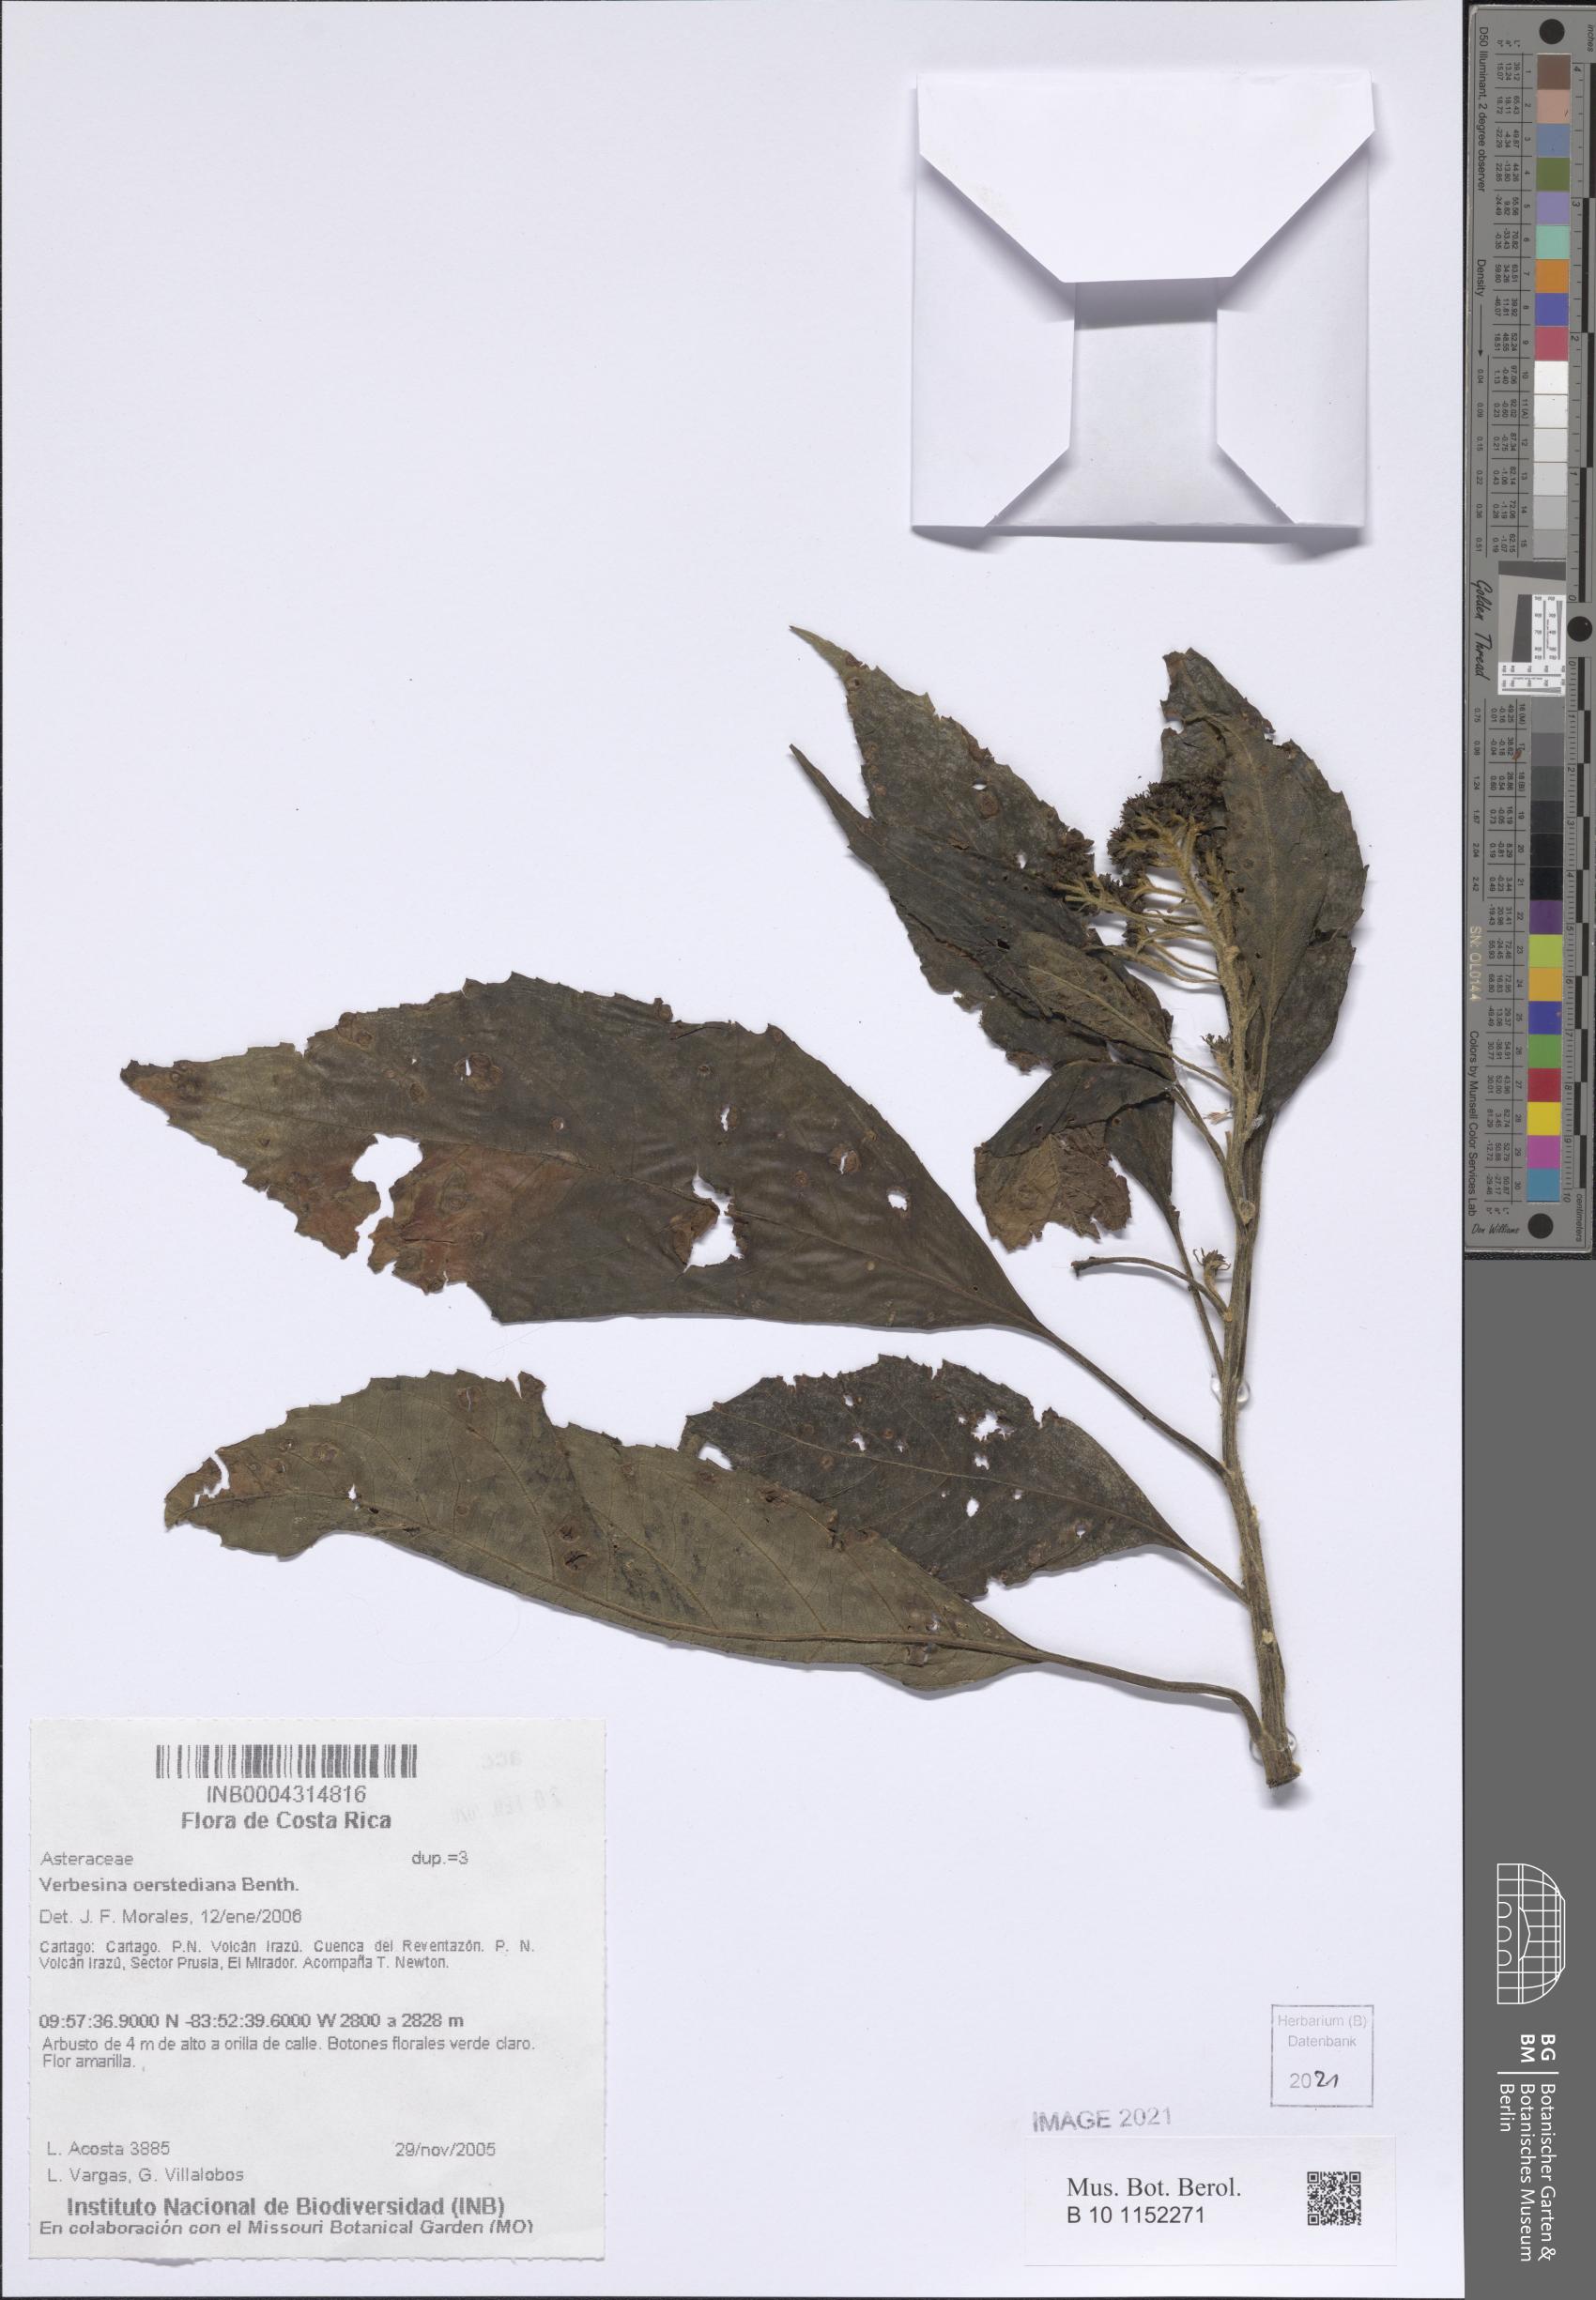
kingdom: Plantae
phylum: Tracheophyta
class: Magnoliopsida
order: Asterales
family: Asteraceae
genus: Verbesina
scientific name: Verbesina oerstediana
